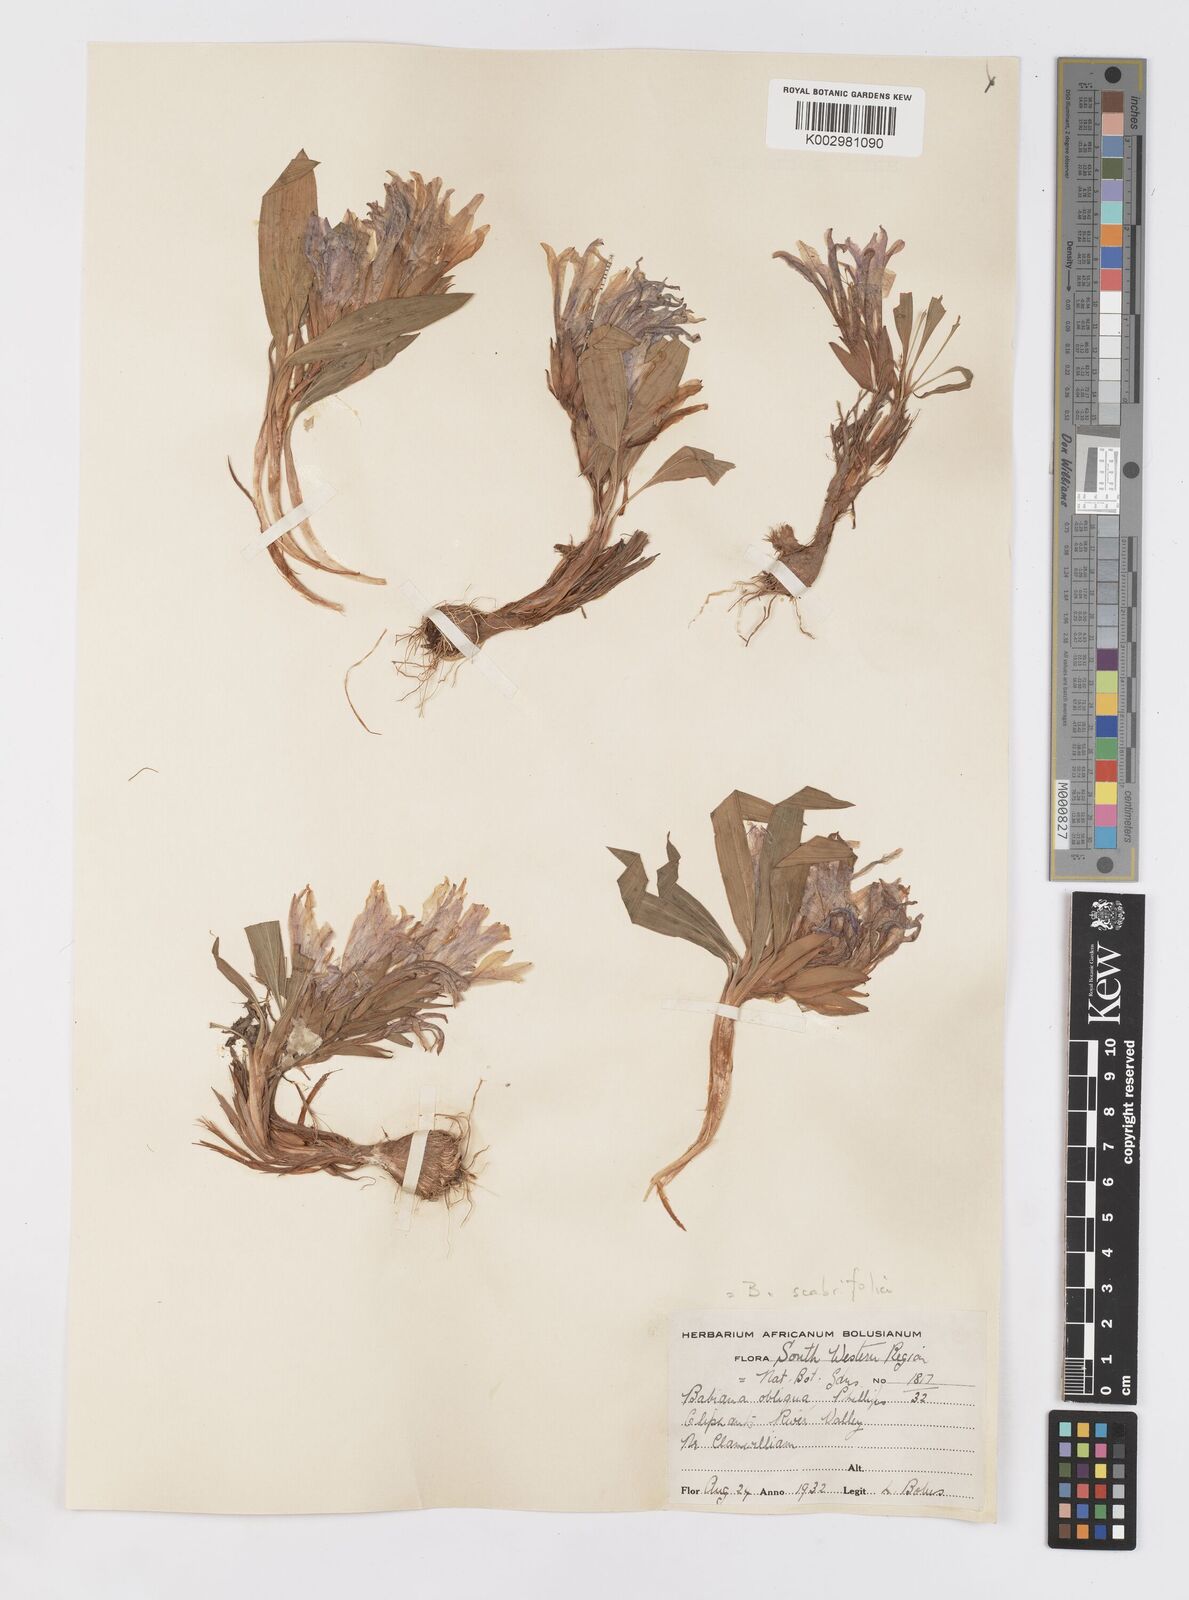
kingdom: Plantae
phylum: Tracheophyta
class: Liliopsida
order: Asparagales
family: Iridaceae
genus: Babiana
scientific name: Babiana scabrifolia
